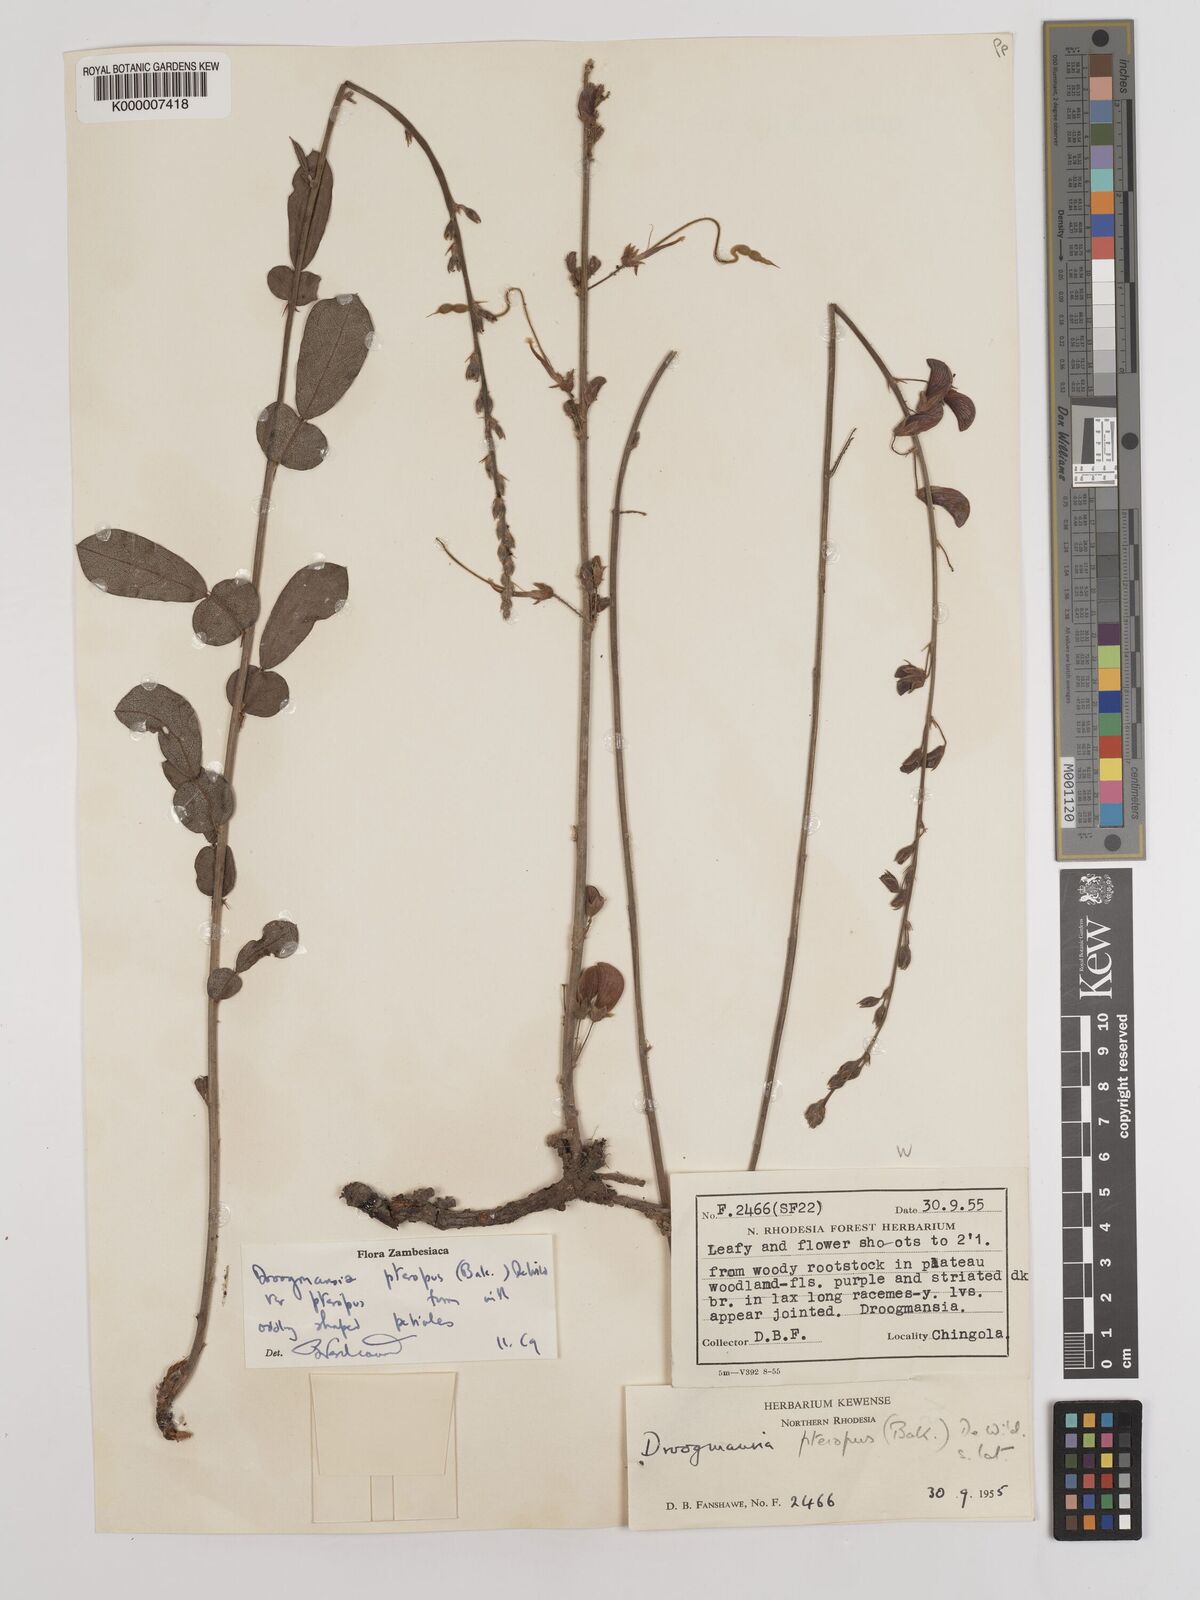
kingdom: Plantae
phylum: Tracheophyta
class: Magnoliopsida
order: Fabales
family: Fabaceae
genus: Droogmansia
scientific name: Droogmansia pteropus
